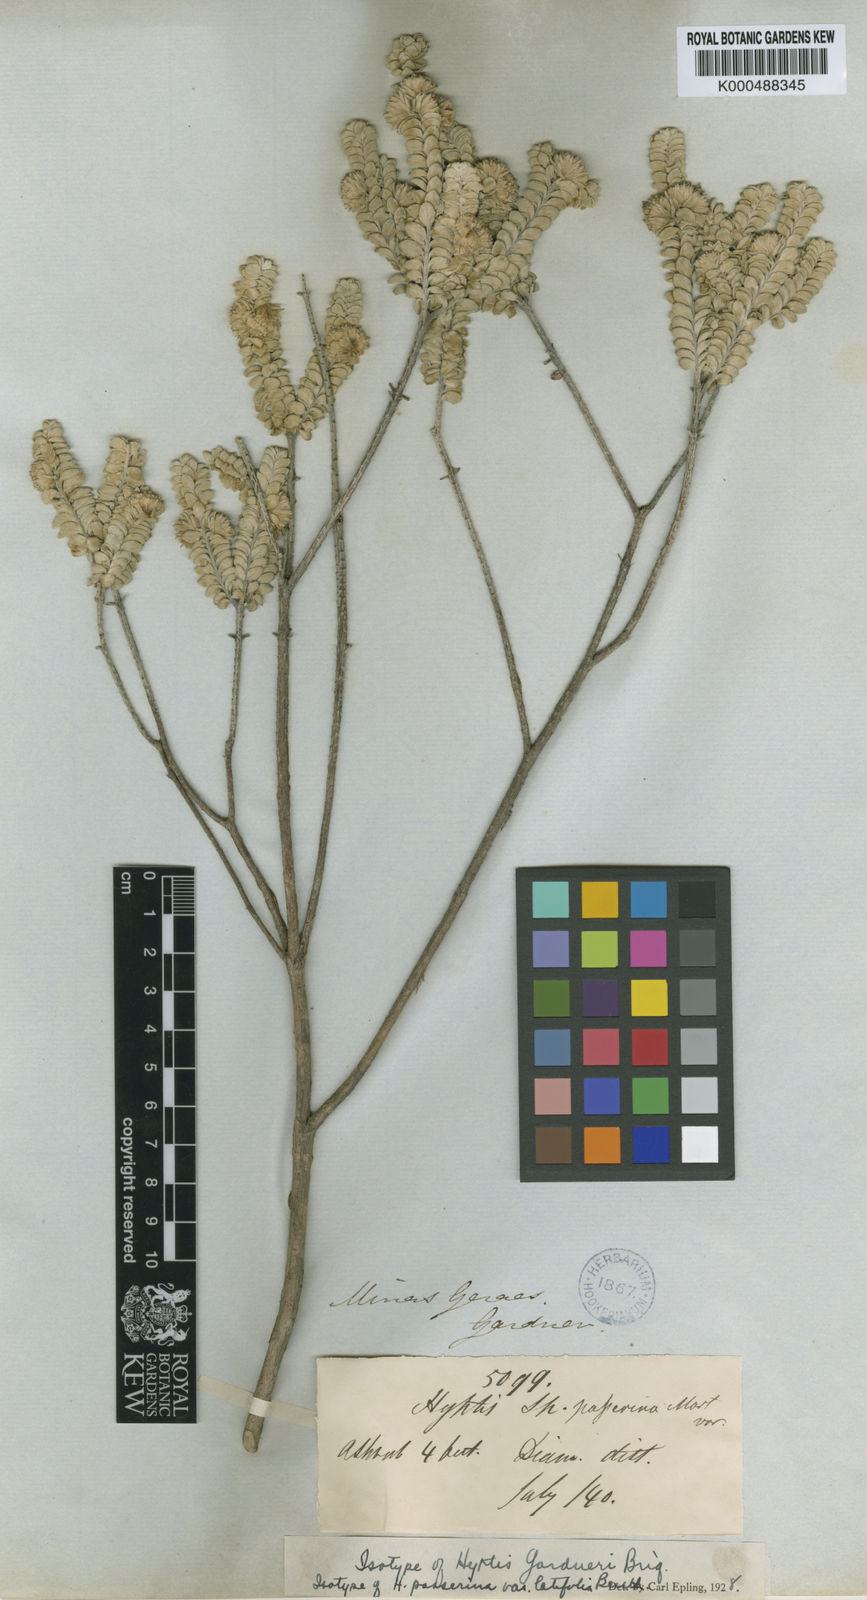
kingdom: Plantae
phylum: Tracheophyta
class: Magnoliopsida
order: Lamiales
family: Lamiaceae
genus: Hyptis
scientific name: Hyptis gardneri
